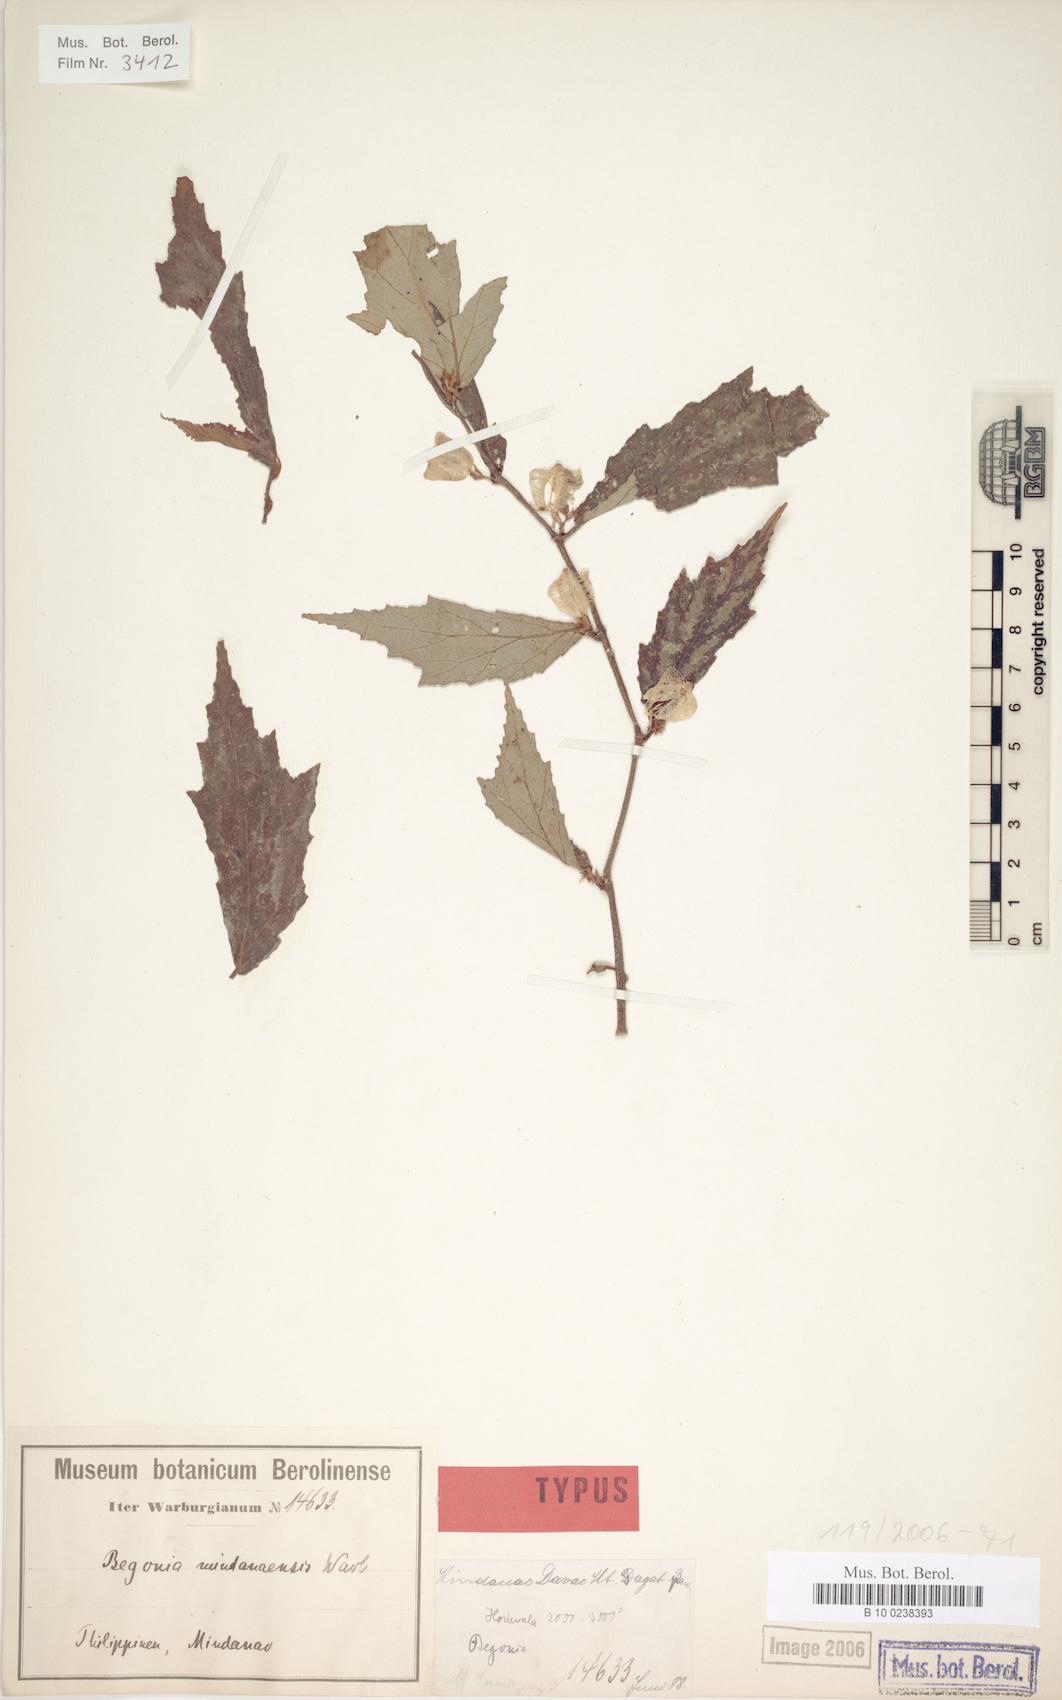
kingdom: Plantae
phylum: Tracheophyta
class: Magnoliopsida
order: Cucurbitales
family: Begoniaceae
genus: Begonia
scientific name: Begonia mindanaensis
